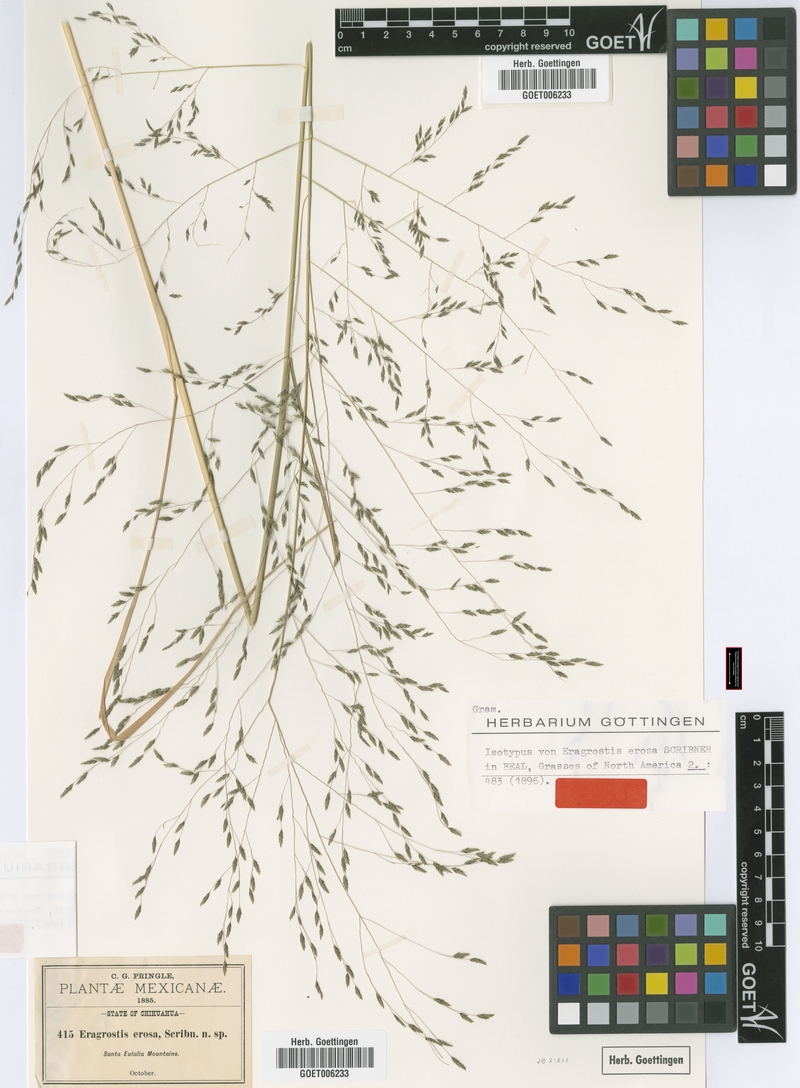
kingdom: Plantae
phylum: Tracheophyta
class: Liliopsida
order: Poales
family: Poaceae
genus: Eragrostis
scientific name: Eragrostis erosa
